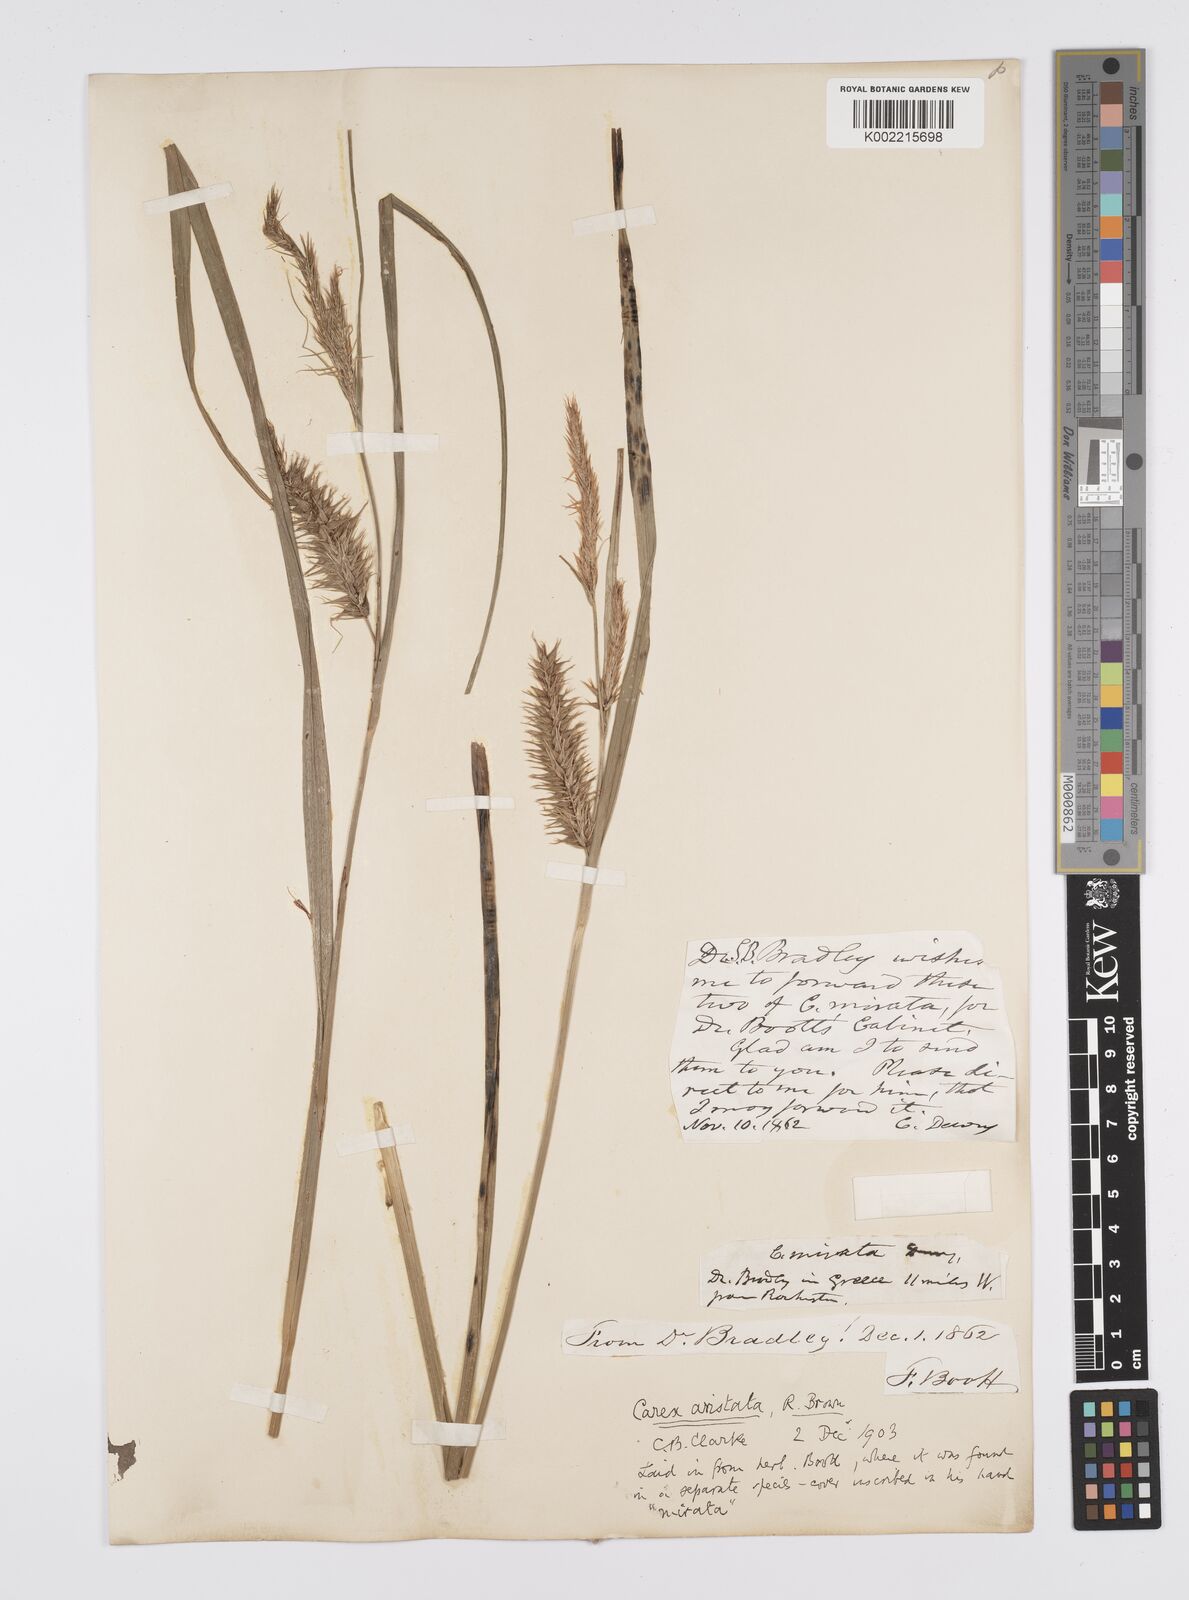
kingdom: Plantae
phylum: Tracheophyta
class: Liliopsida
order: Poales
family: Cyperaceae
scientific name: Cyperaceae
